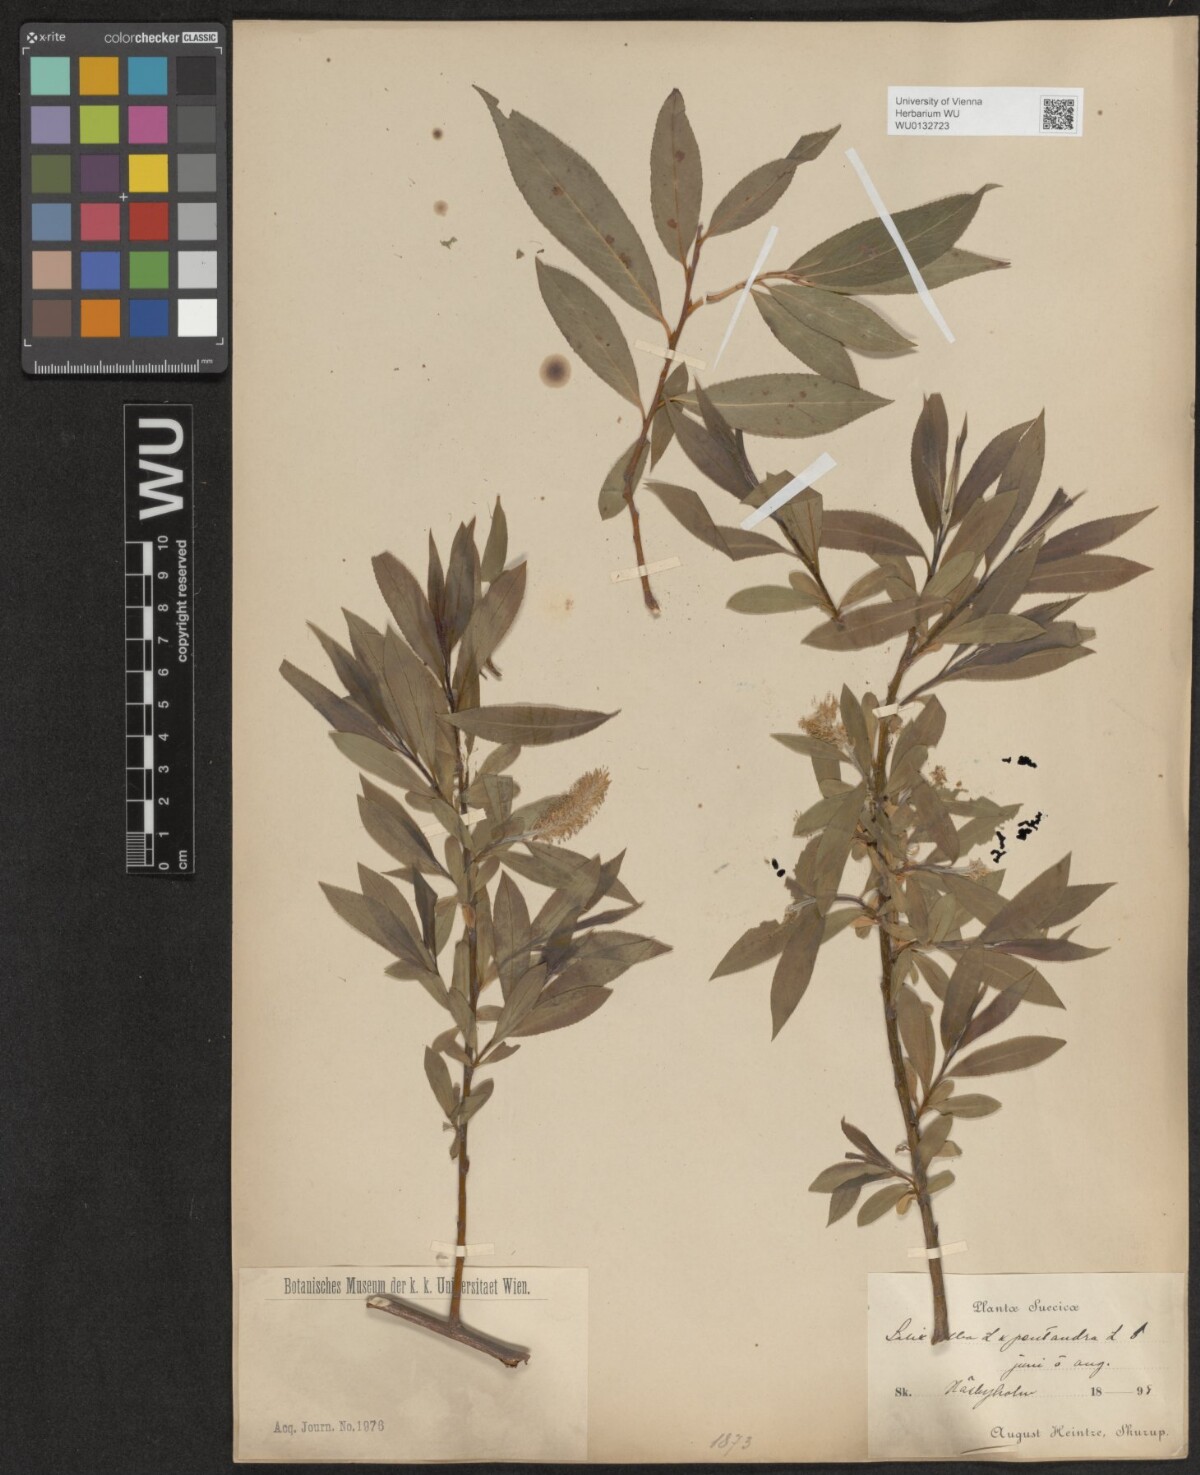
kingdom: Plantae
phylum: Tracheophyta
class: Magnoliopsida
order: Malpighiales
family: Salicaceae
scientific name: Salicaceae
